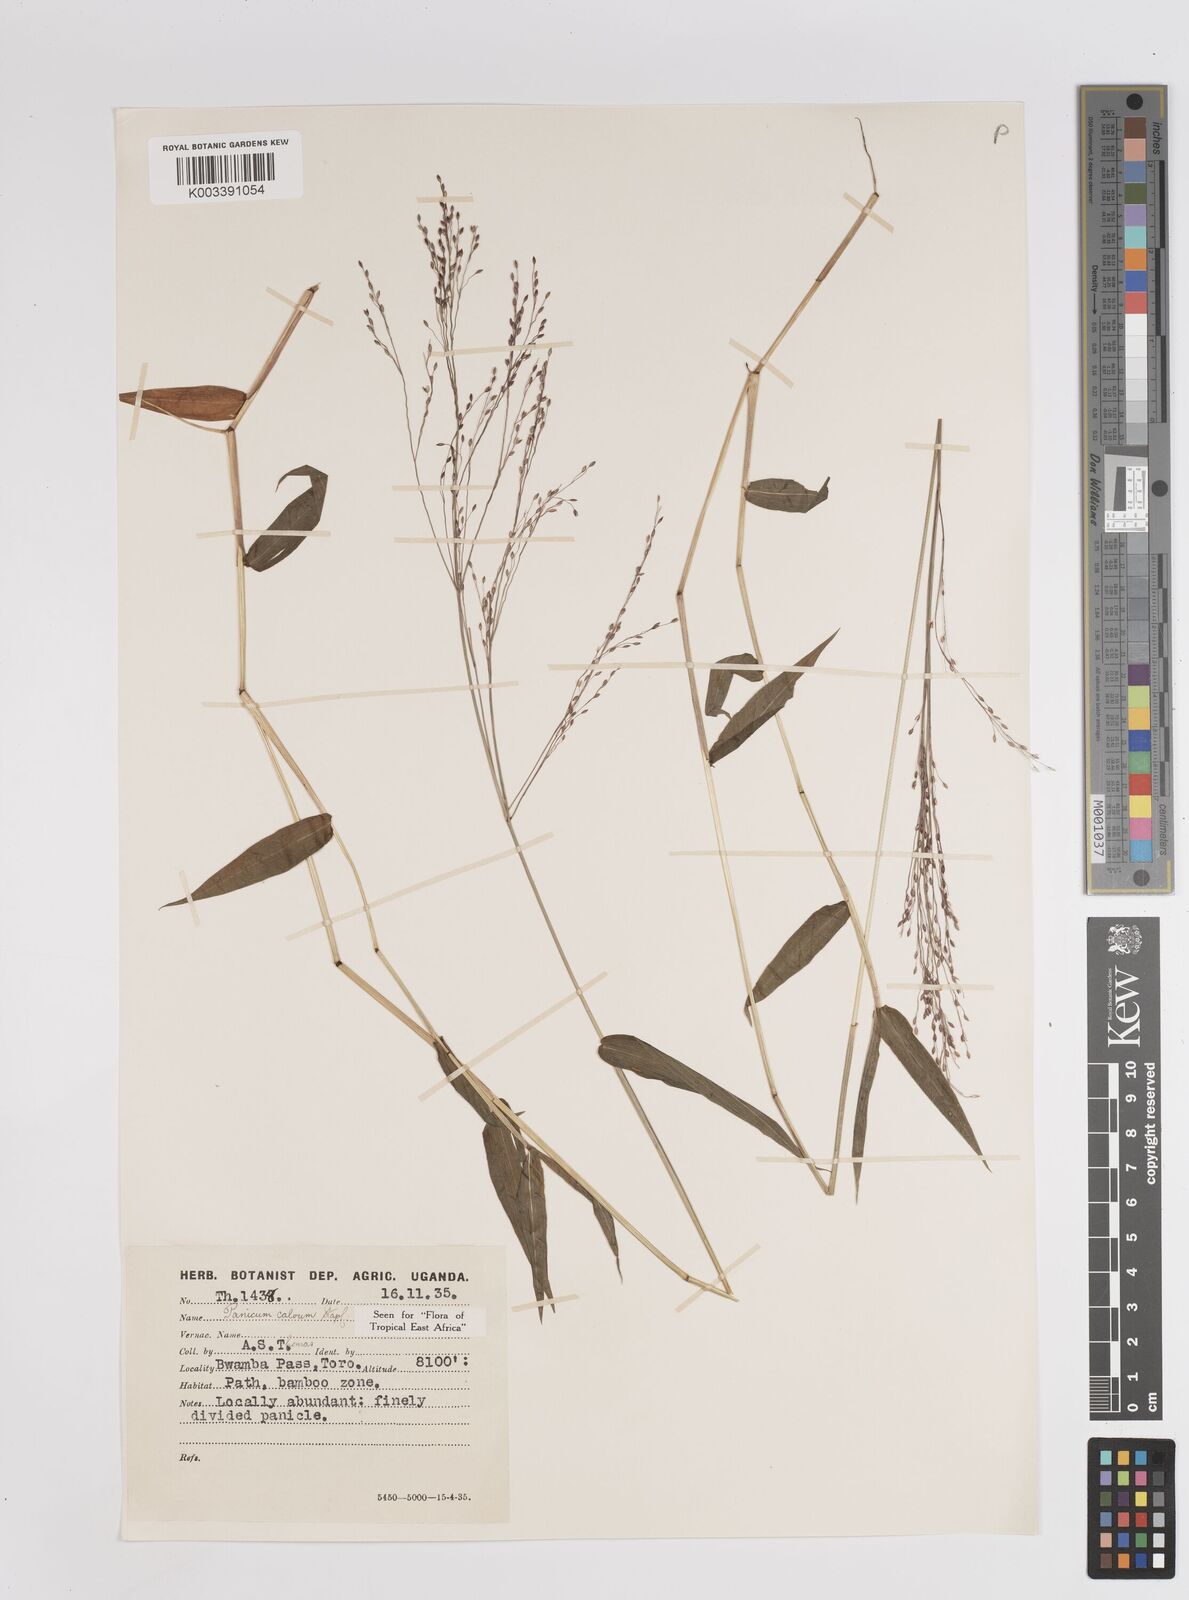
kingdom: Plantae
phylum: Tracheophyta
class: Liliopsida
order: Poales
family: Poaceae
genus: Panicum
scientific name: Panicum calvum
